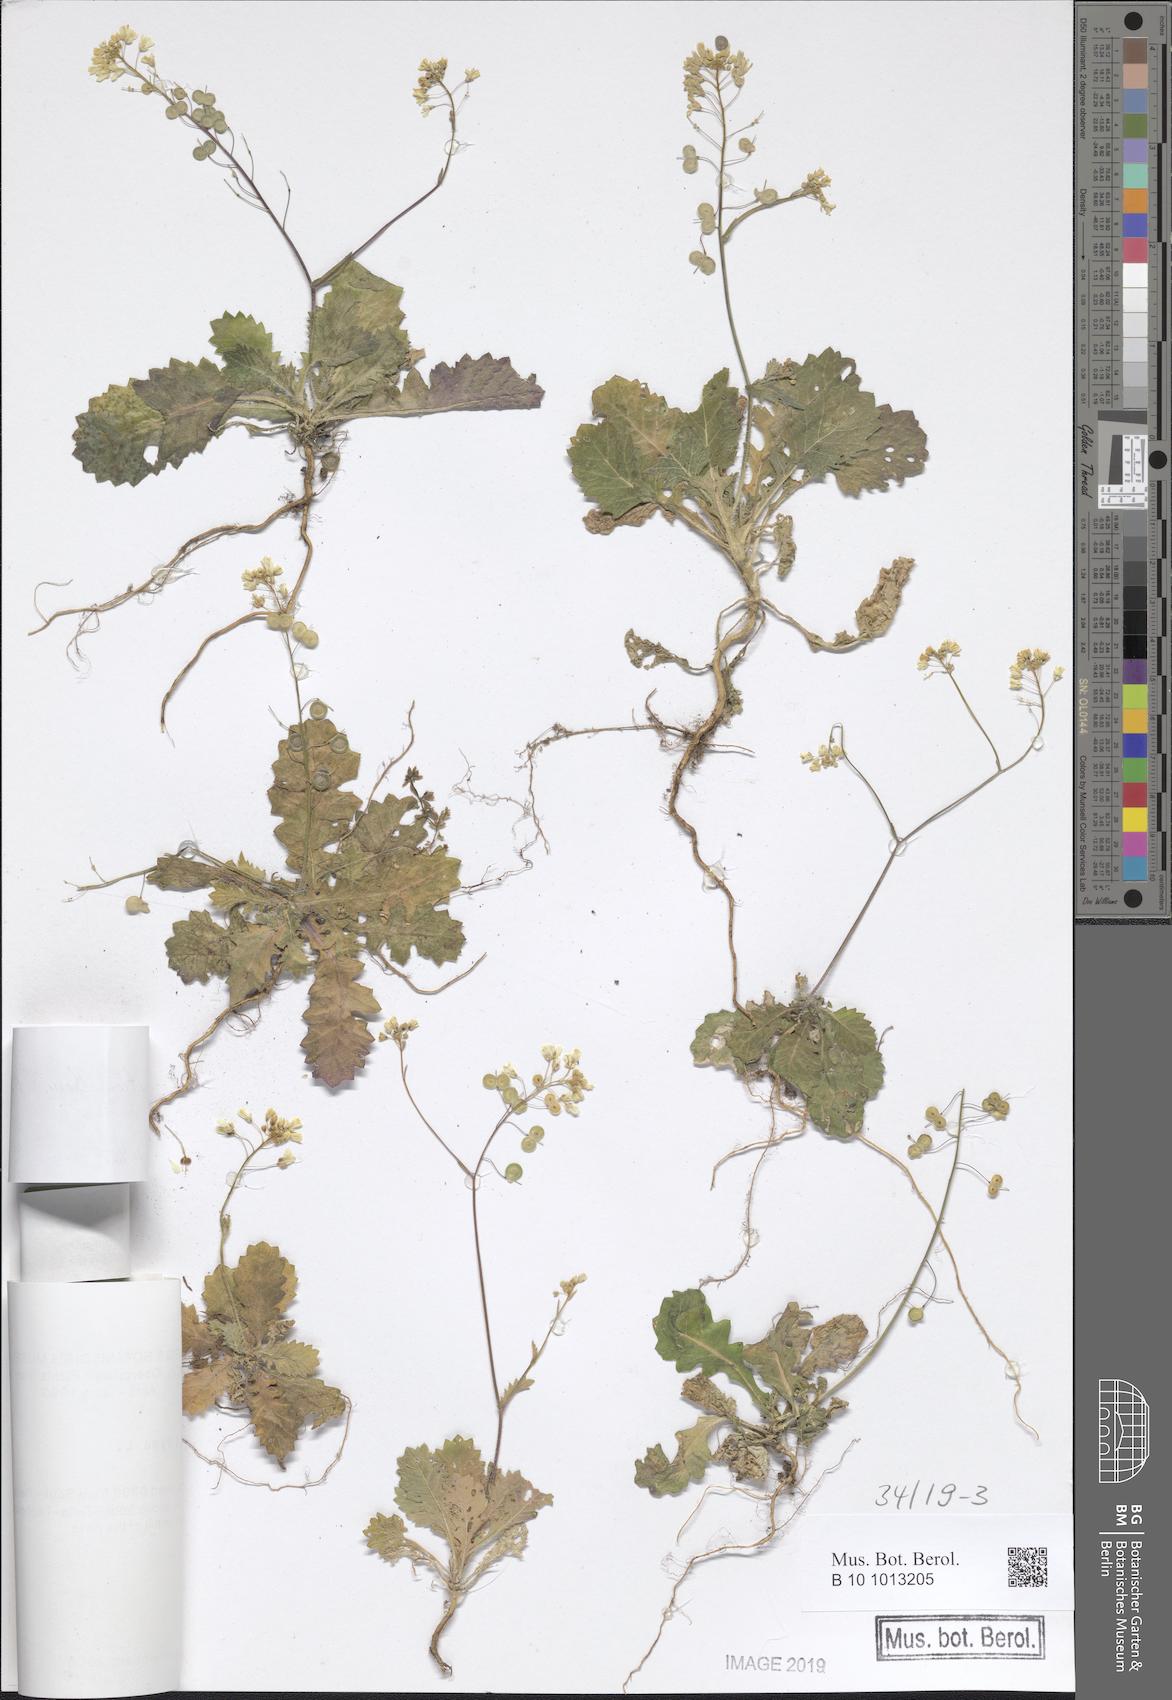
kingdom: Plantae
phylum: Tracheophyta
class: Magnoliopsida
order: Brassicales
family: Brassicaceae
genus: Biscutella
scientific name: Biscutella baetica
